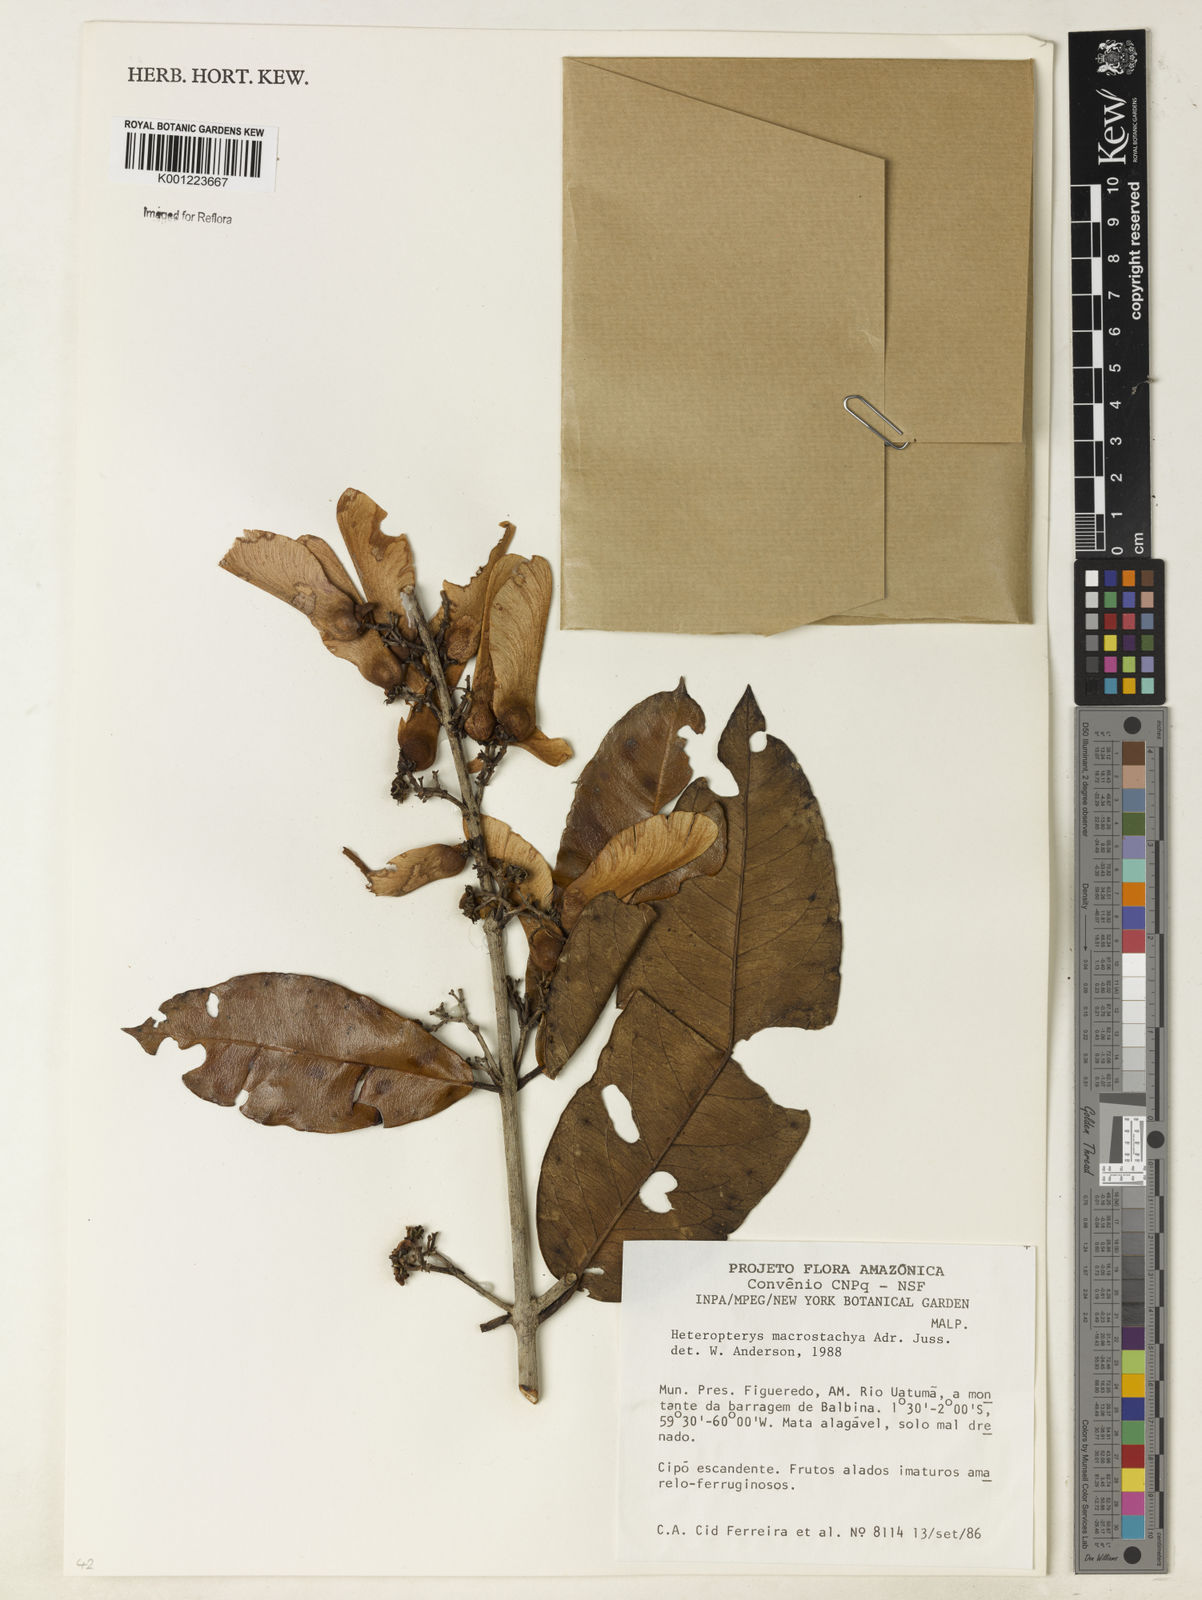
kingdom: Plantae
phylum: Tracheophyta
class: Magnoliopsida
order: Malpighiales
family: Malpighiaceae
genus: Heteropterys
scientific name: Heteropterys macrostachya
